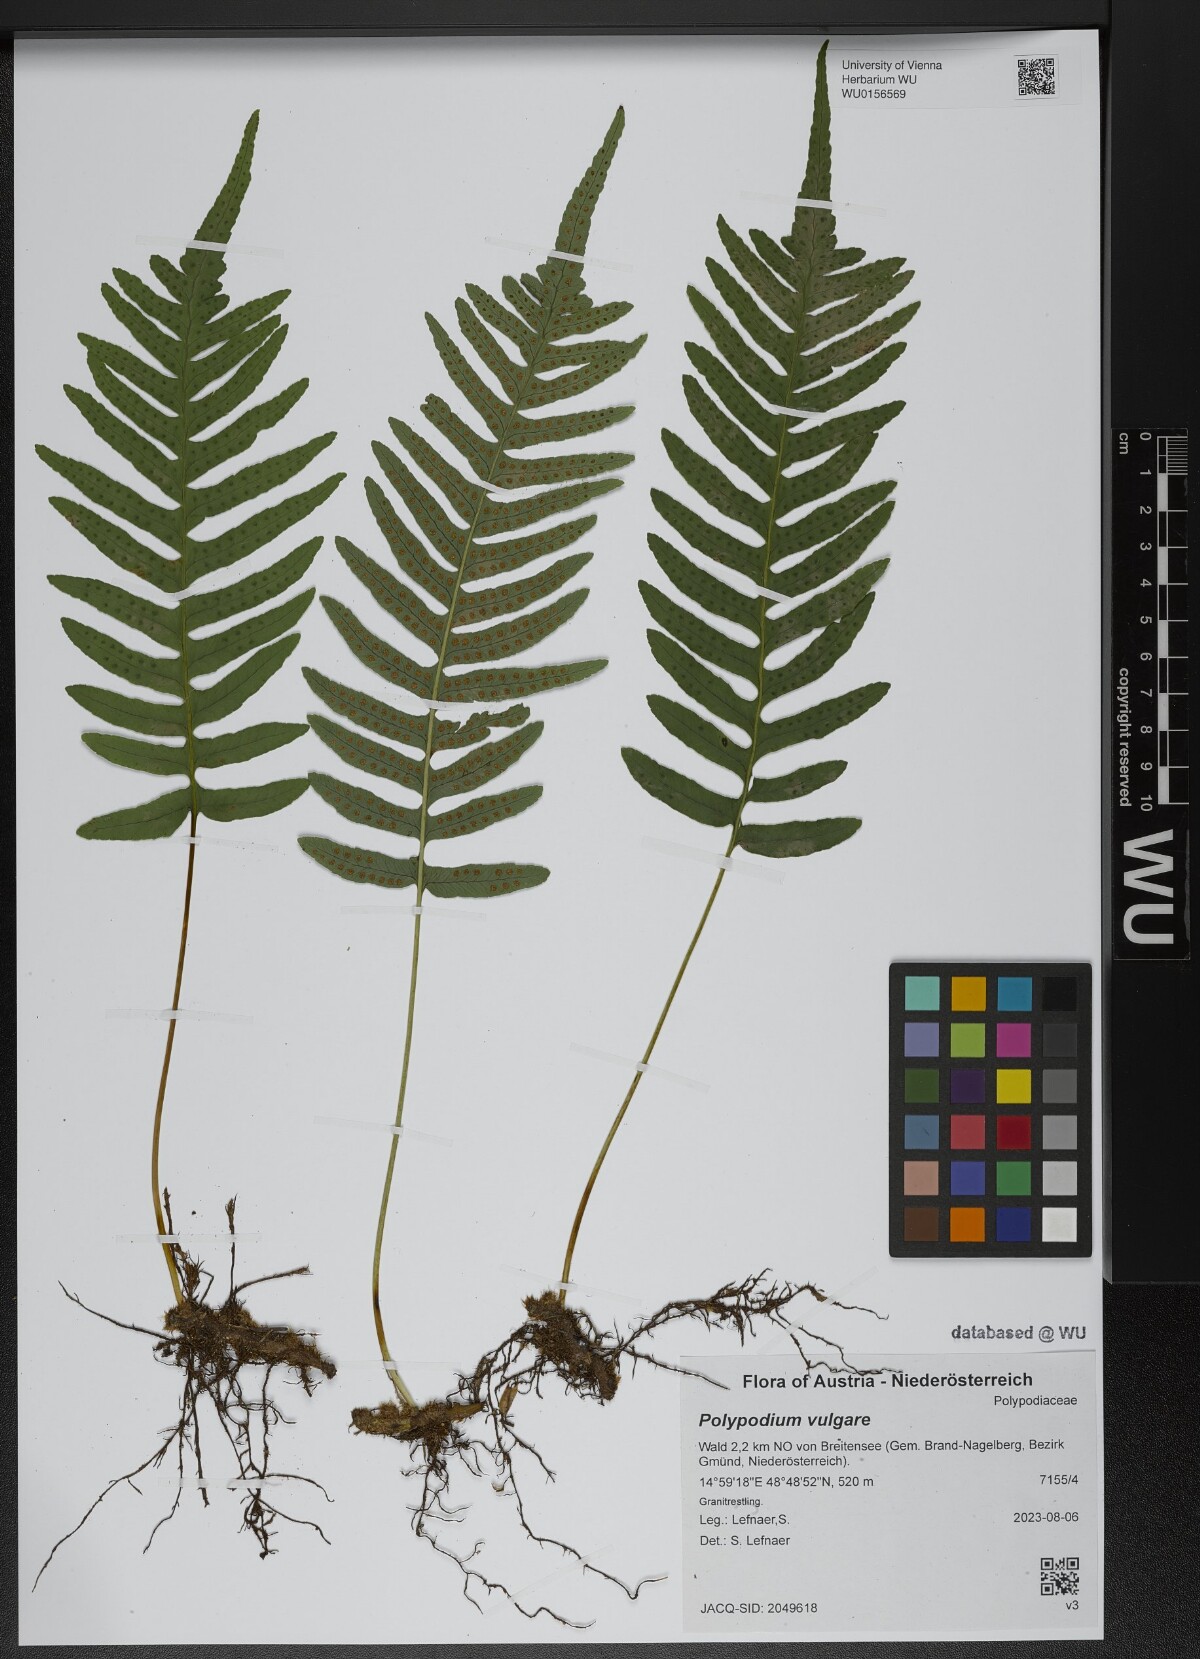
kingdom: Plantae
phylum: Tracheophyta
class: Polypodiopsida
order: Polypodiales
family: Polypodiaceae
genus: Polypodium
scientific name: Polypodium vulgare
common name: Common polypody
